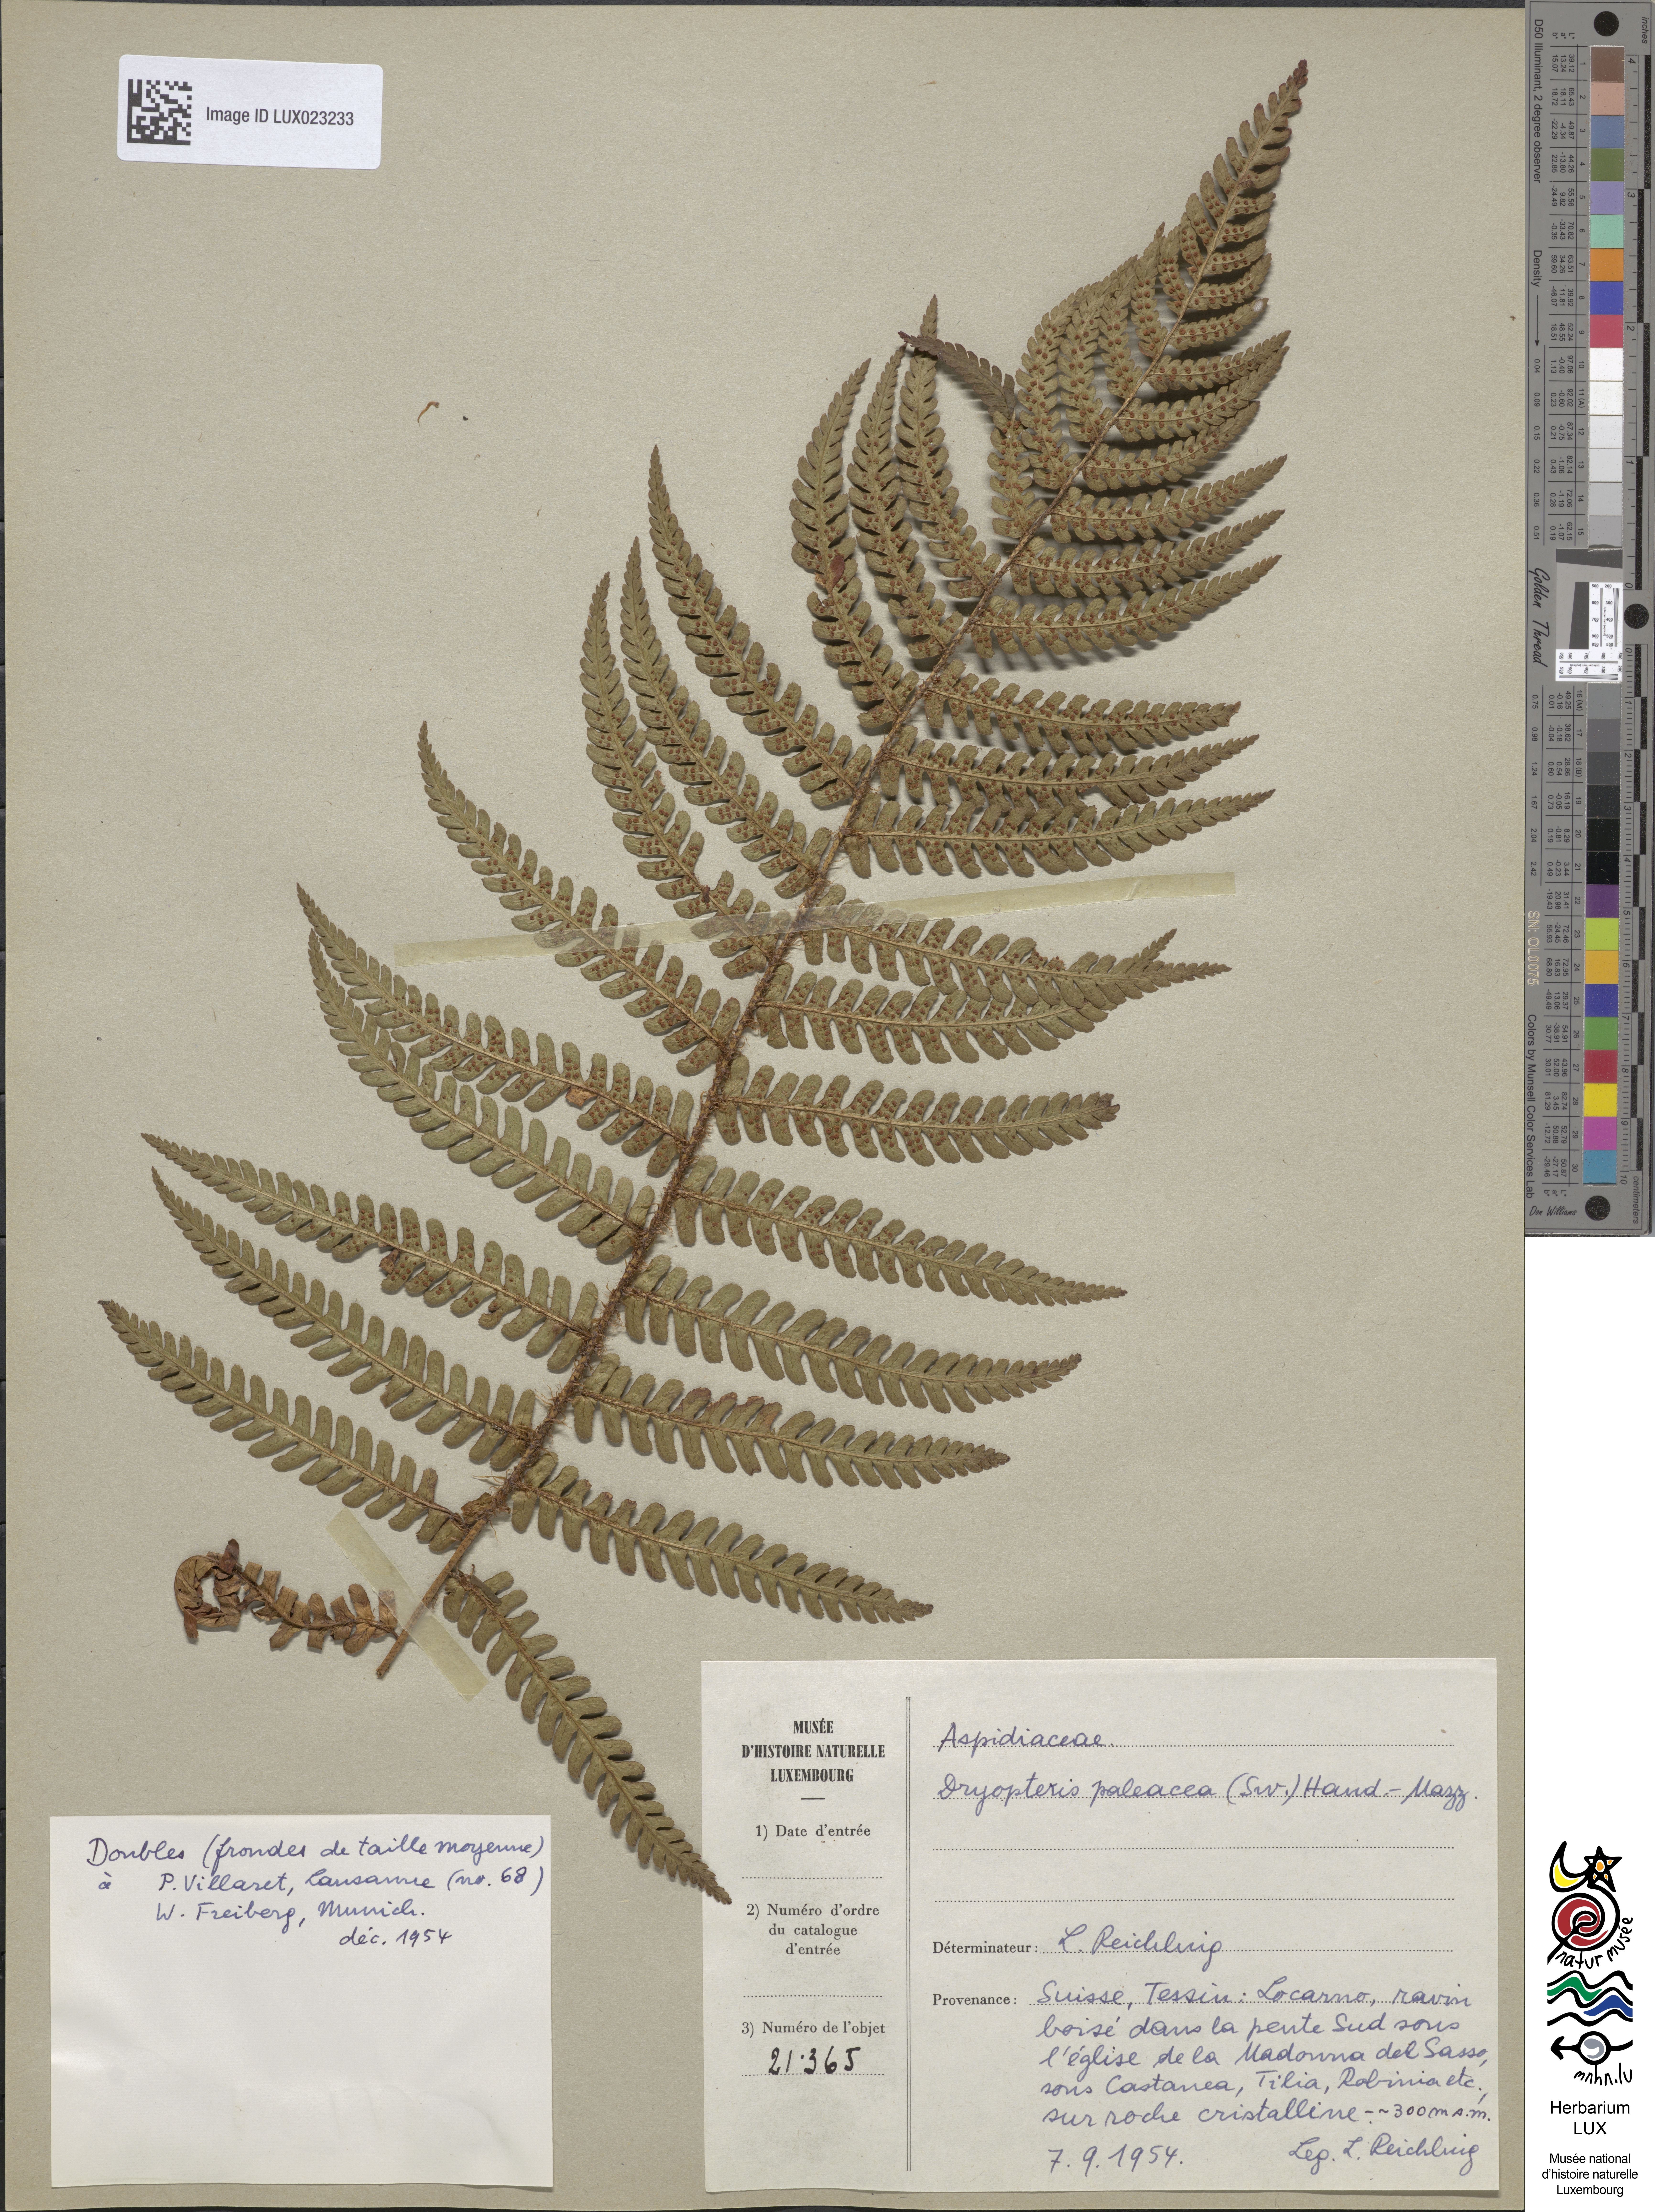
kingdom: Plantae
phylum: Tracheophyta
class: Polypodiopsida
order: Polypodiales
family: Dryopteridaceae
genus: Dryopteris
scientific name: Dryopteris borreri
